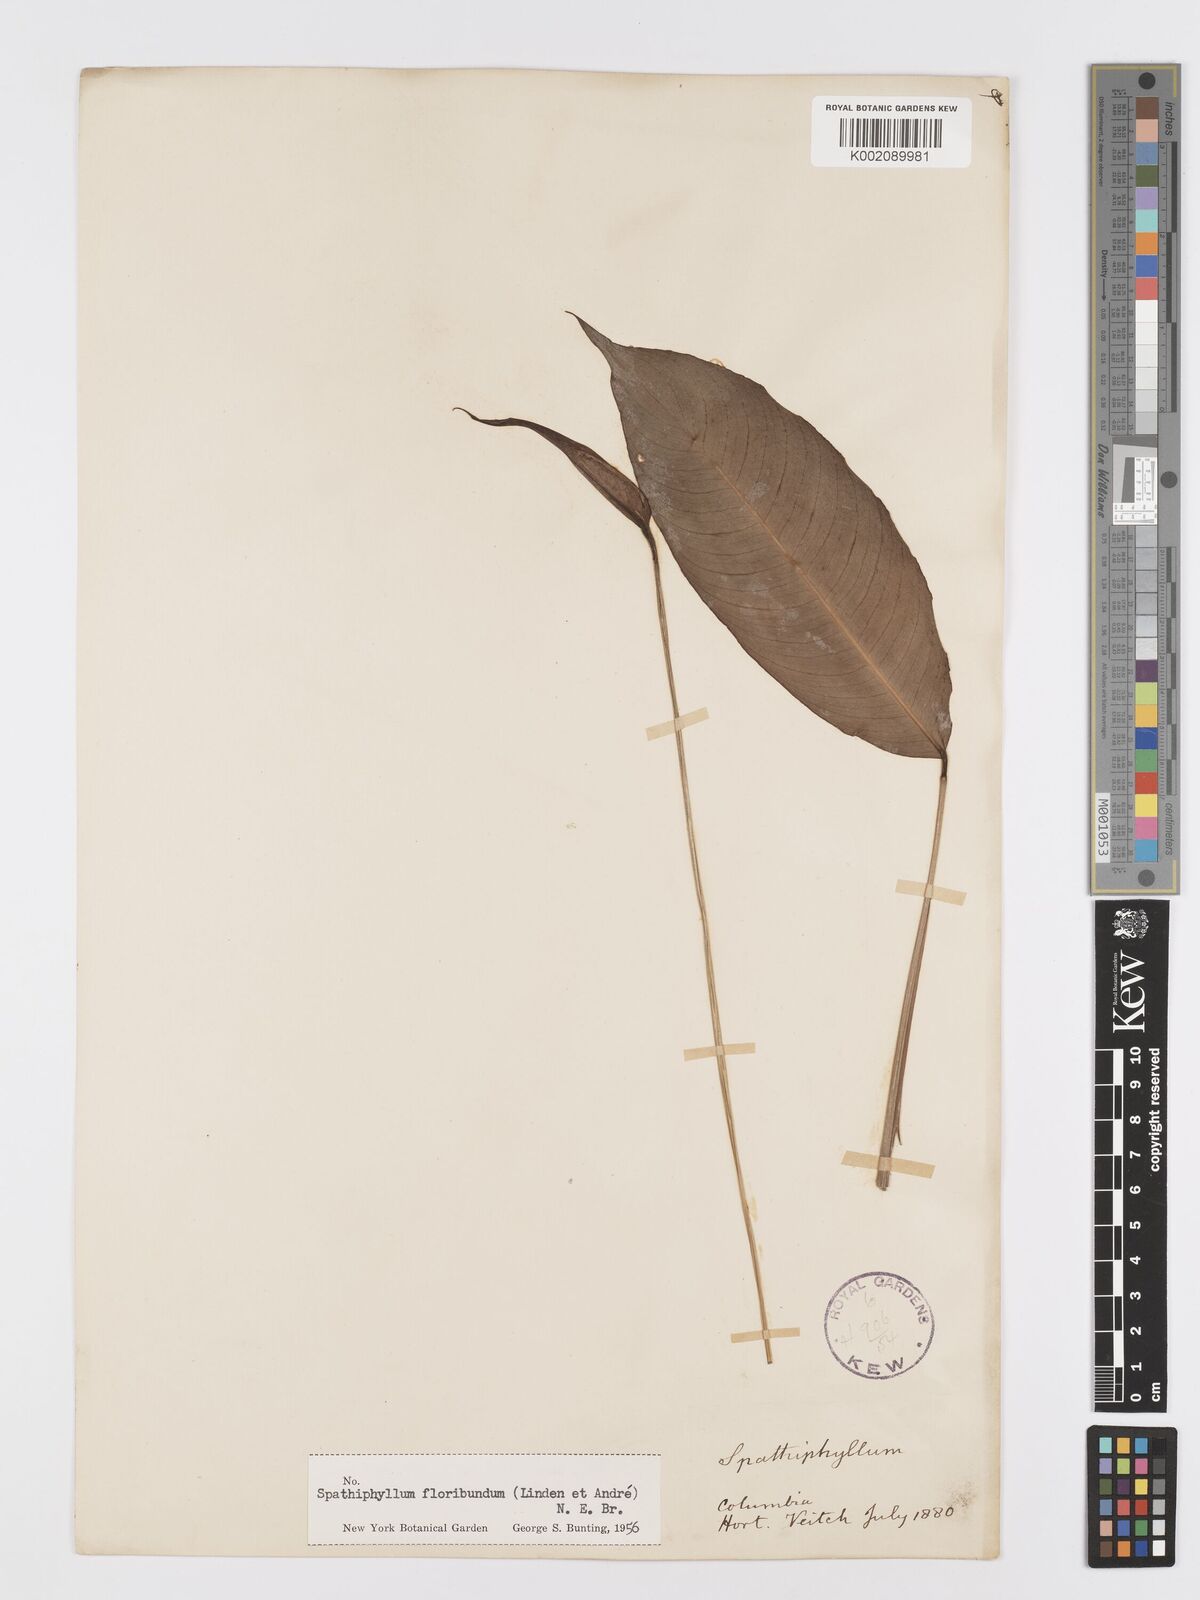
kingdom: Plantae
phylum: Tracheophyta
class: Liliopsida
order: Alismatales
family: Araceae
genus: Spathiphyllum
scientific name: Spathiphyllum floribundum
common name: Peace-lily
